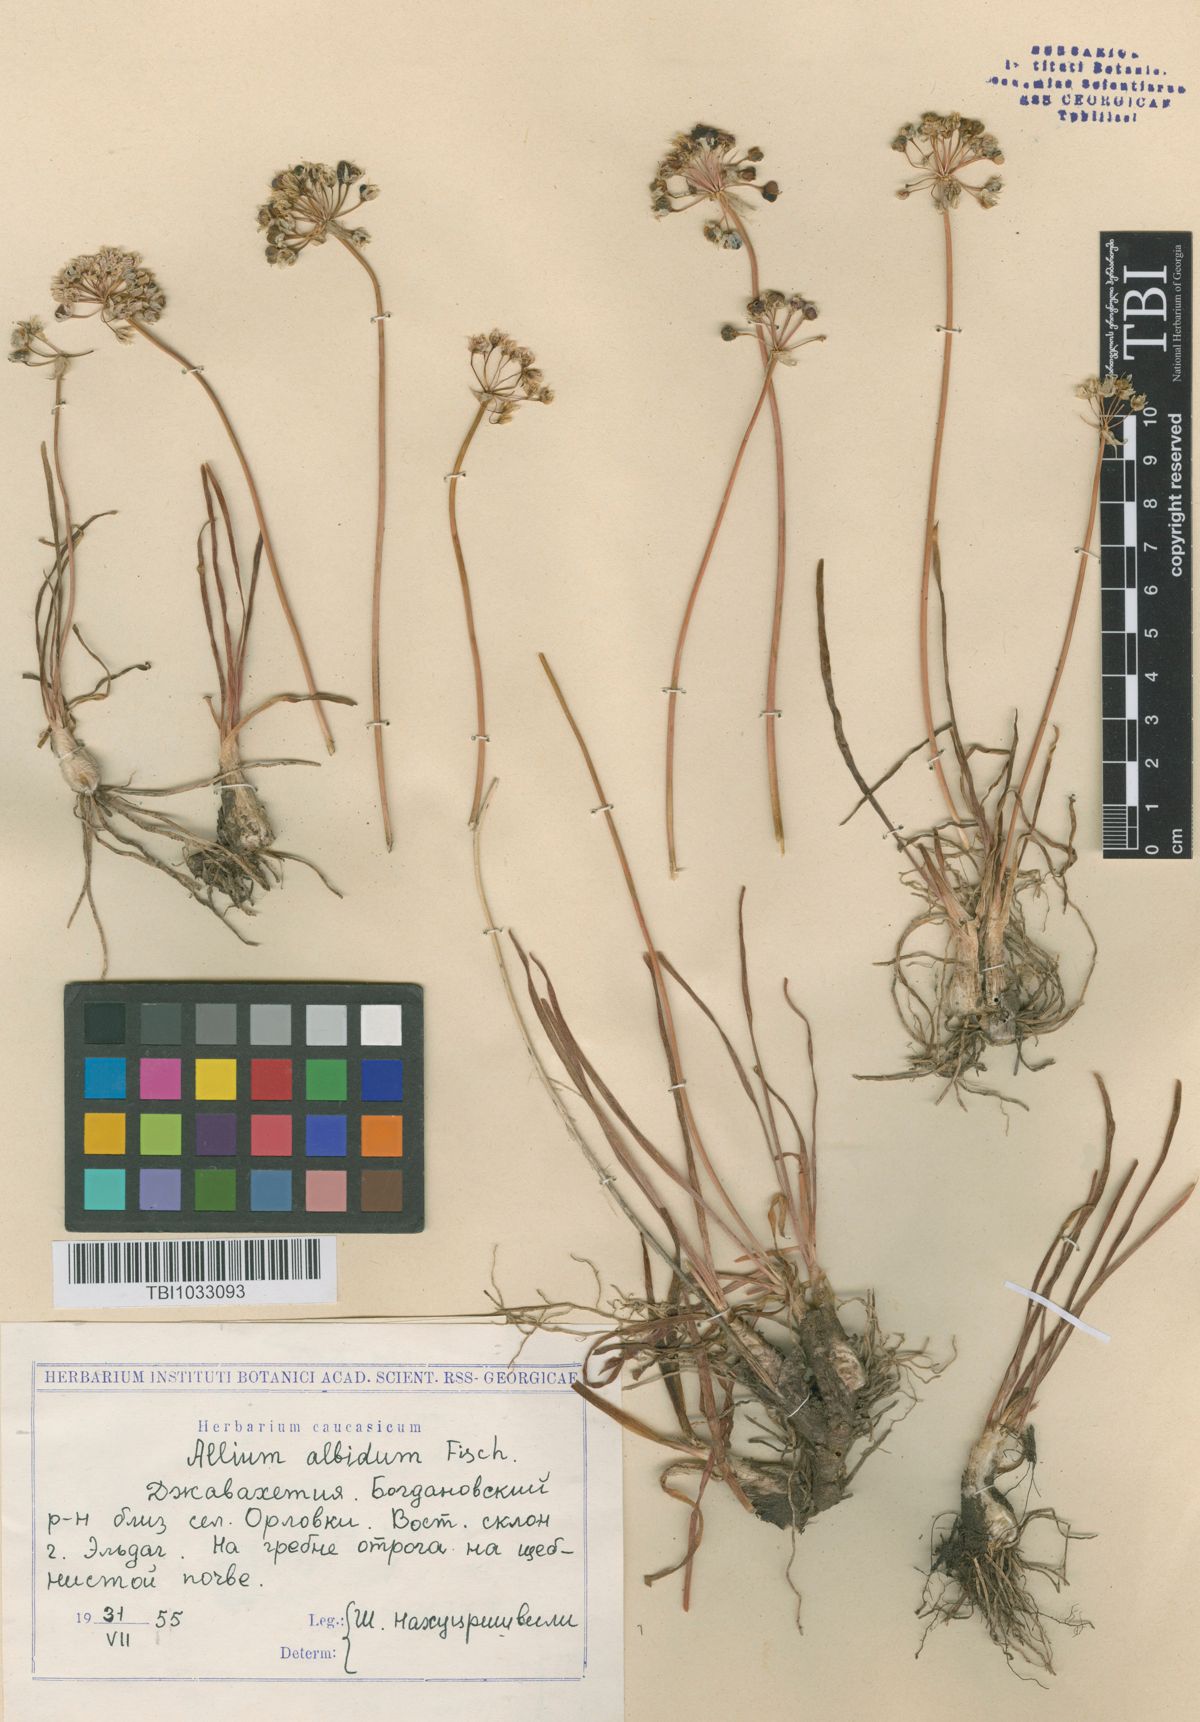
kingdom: Plantae
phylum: Tracheophyta
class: Liliopsida
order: Asparagales
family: Amaryllidaceae
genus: Allium
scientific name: Allium denudatum
